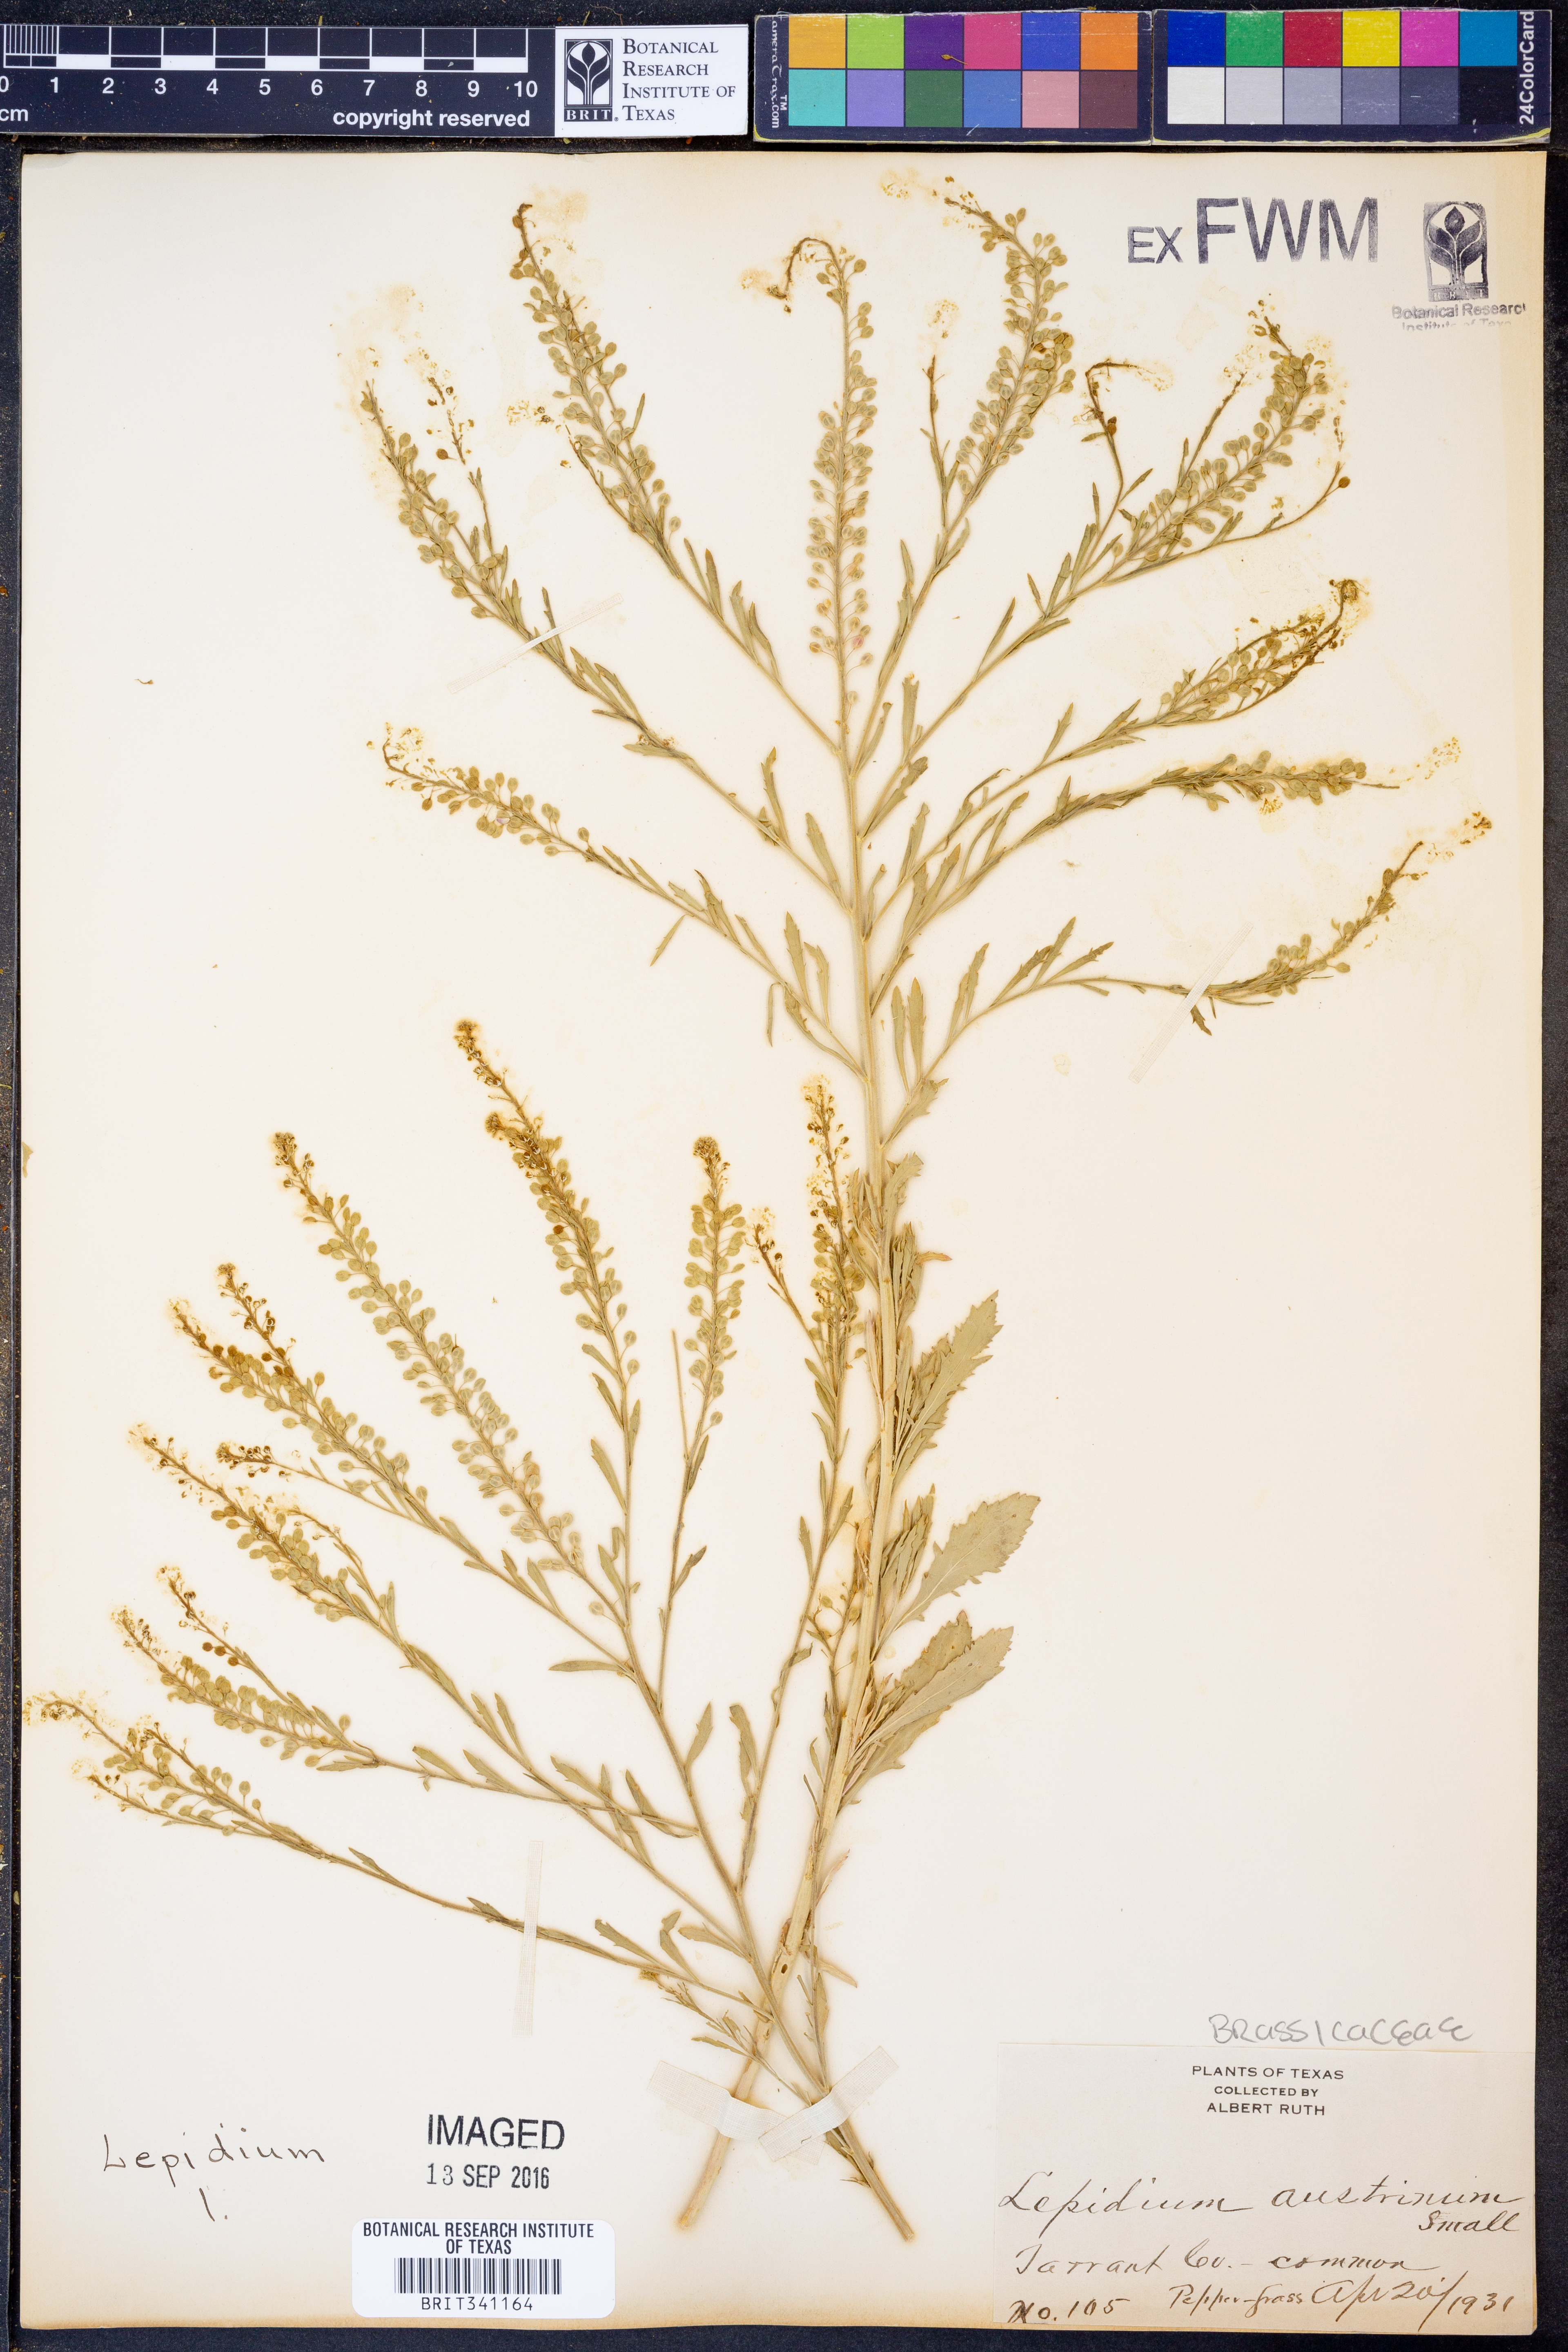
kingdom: Plantae
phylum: Tracheophyta
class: Magnoliopsida
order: Brassicales
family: Brassicaceae
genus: Lepidium
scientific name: Lepidium austrinum
